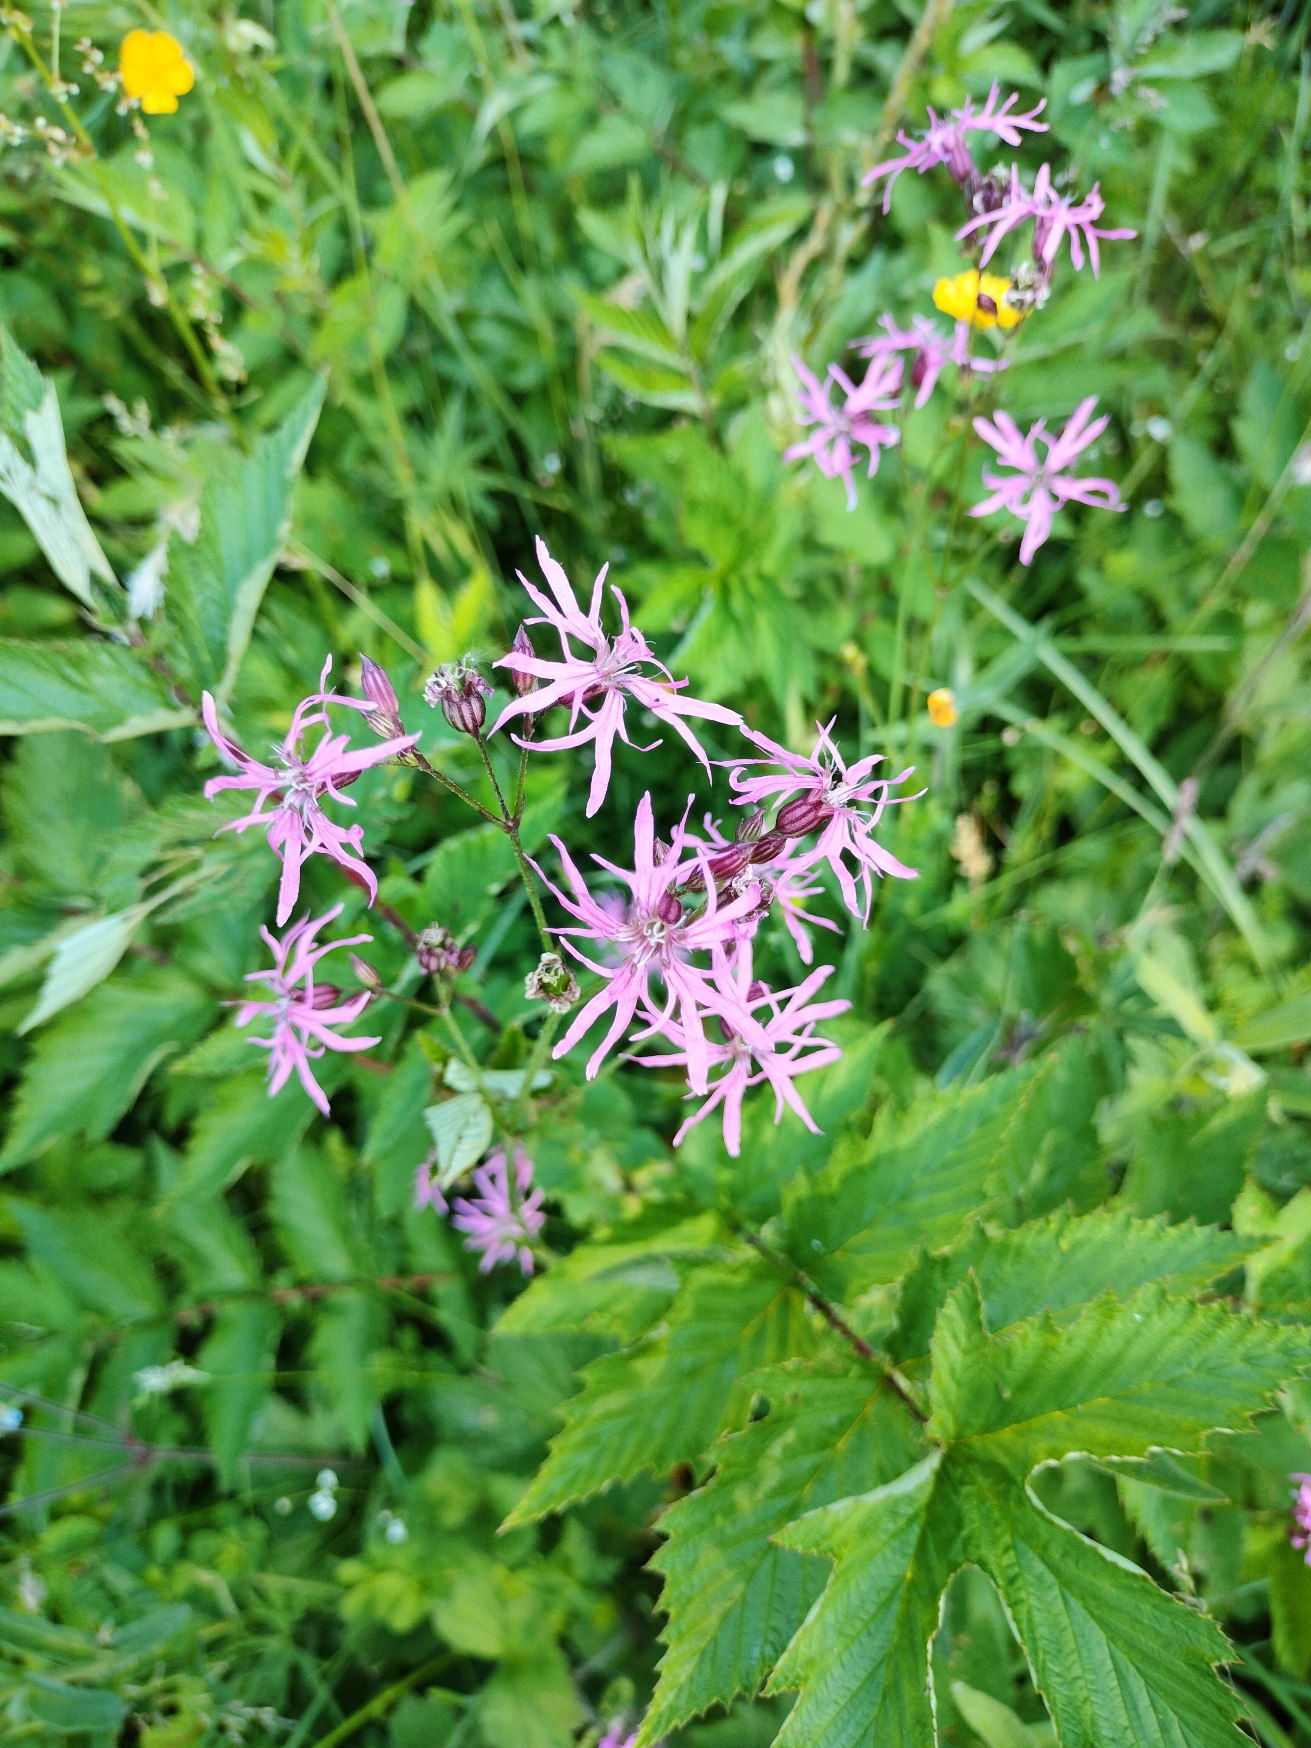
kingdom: Plantae
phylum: Tracheophyta
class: Magnoliopsida
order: Caryophyllales
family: Caryophyllaceae
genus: Silene
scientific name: Silene flos-cuculi
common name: Trævlekrone
